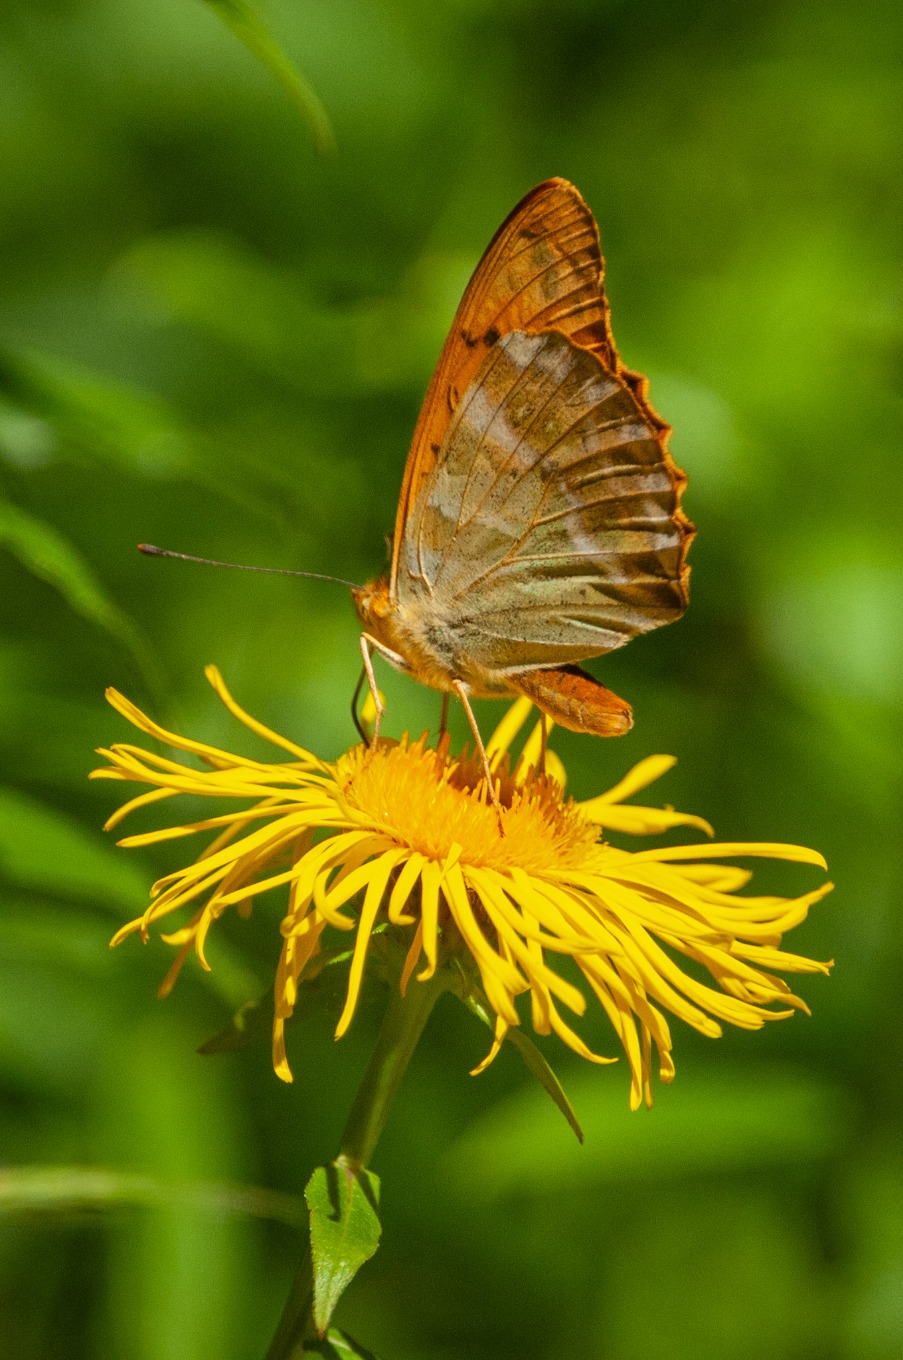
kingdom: Animalia
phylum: Arthropoda
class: Insecta
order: Lepidoptera
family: Nymphalidae
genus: Argynnis
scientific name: Argynnis paphia
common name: Kejserkåbe
